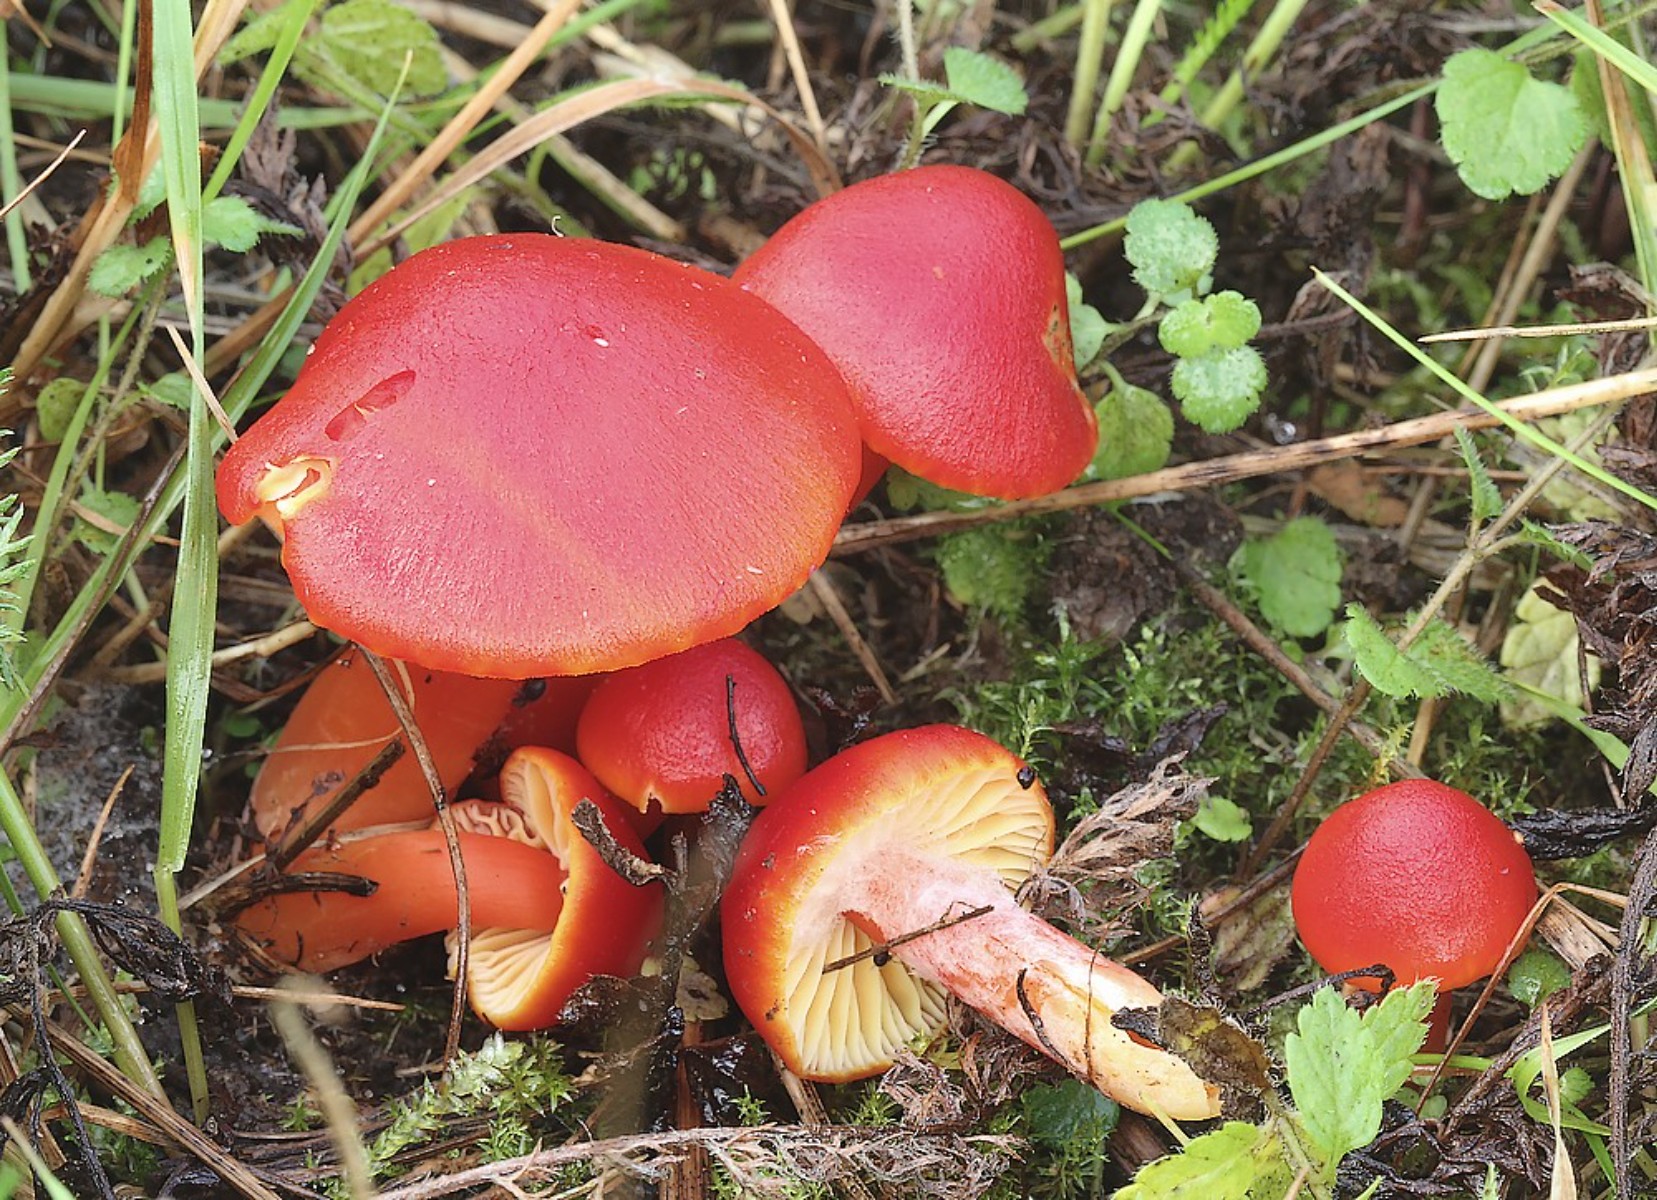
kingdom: Fungi
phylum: Basidiomycota
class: Agaricomycetes
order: Agaricales
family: Hygrophoraceae
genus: Hygrocybe
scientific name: Hygrocybe coccinea
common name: cinnober-vokshat
